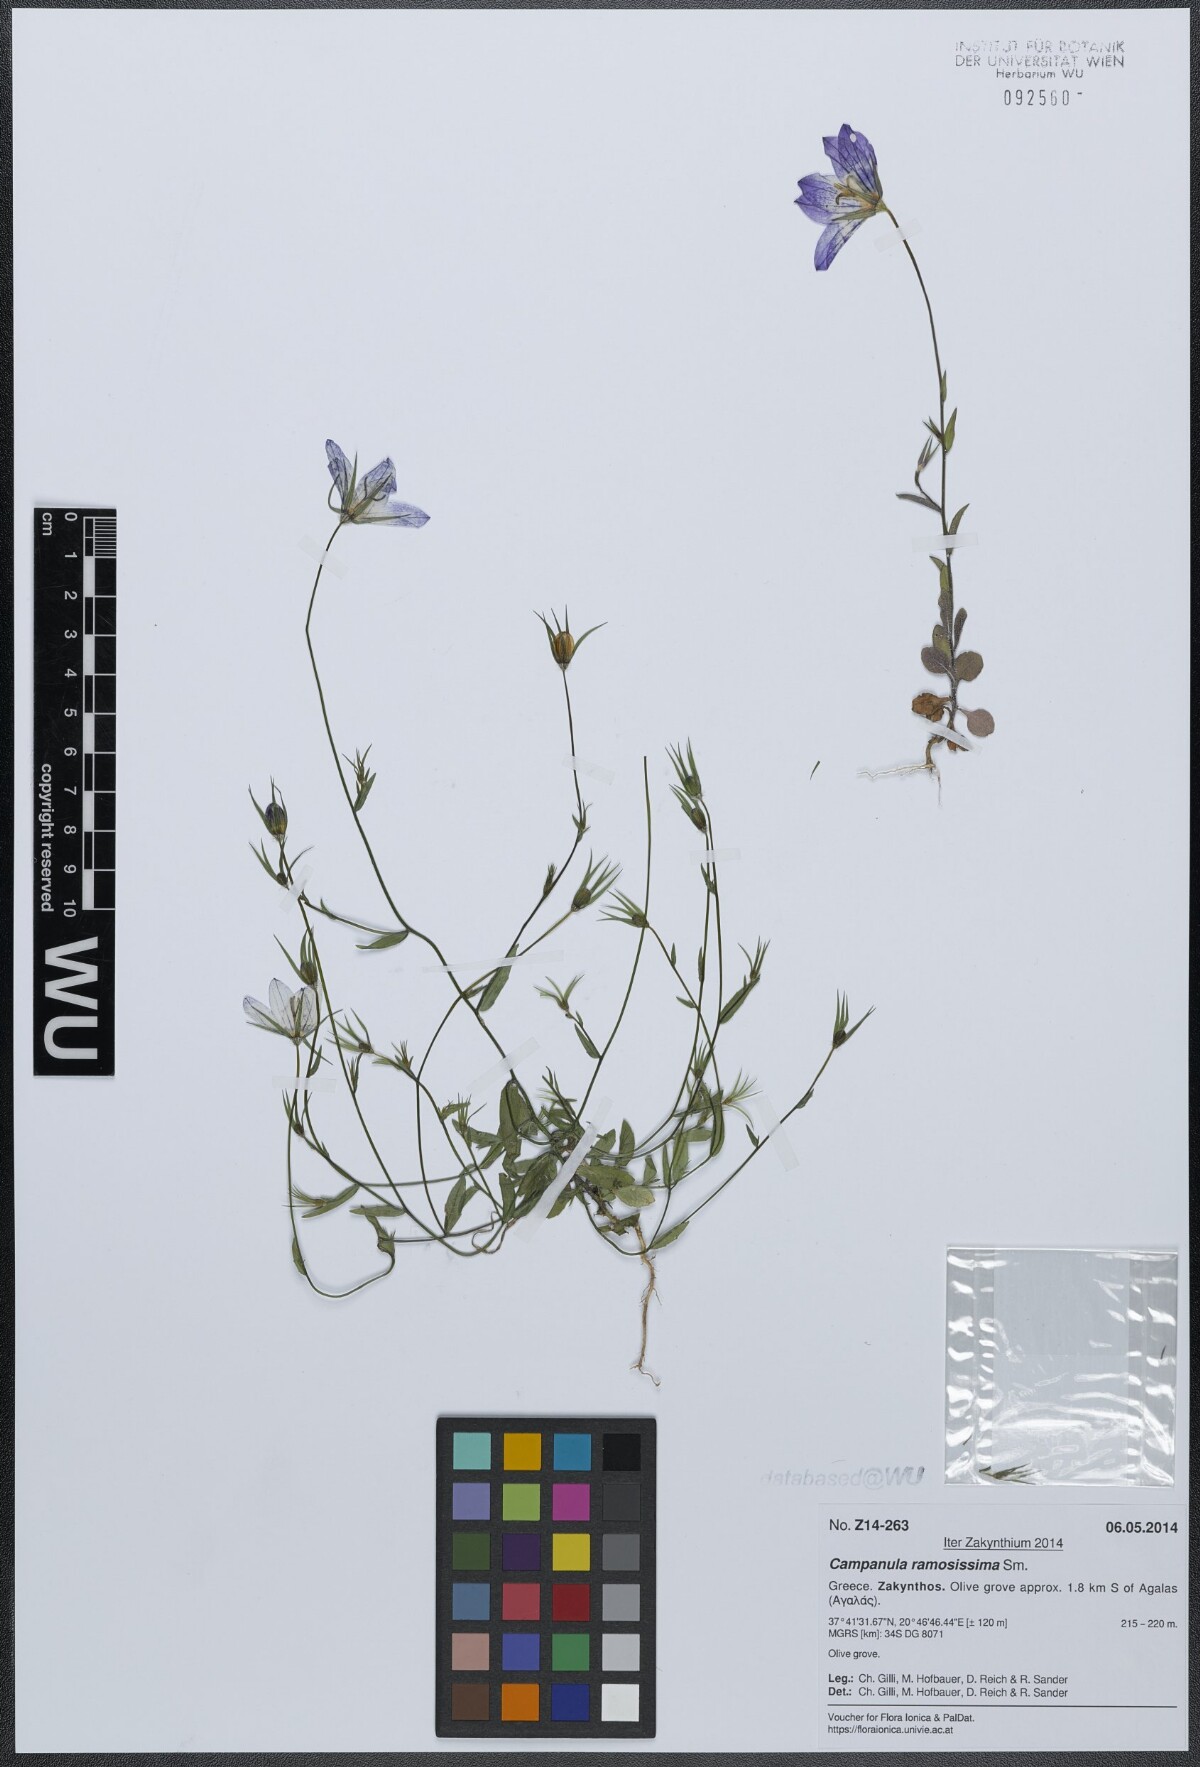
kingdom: Plantae
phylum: Tracheophyta
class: Magnoliopsida
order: Asterales
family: Campanulaceae
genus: Campanula
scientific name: Campanula ramosissima
